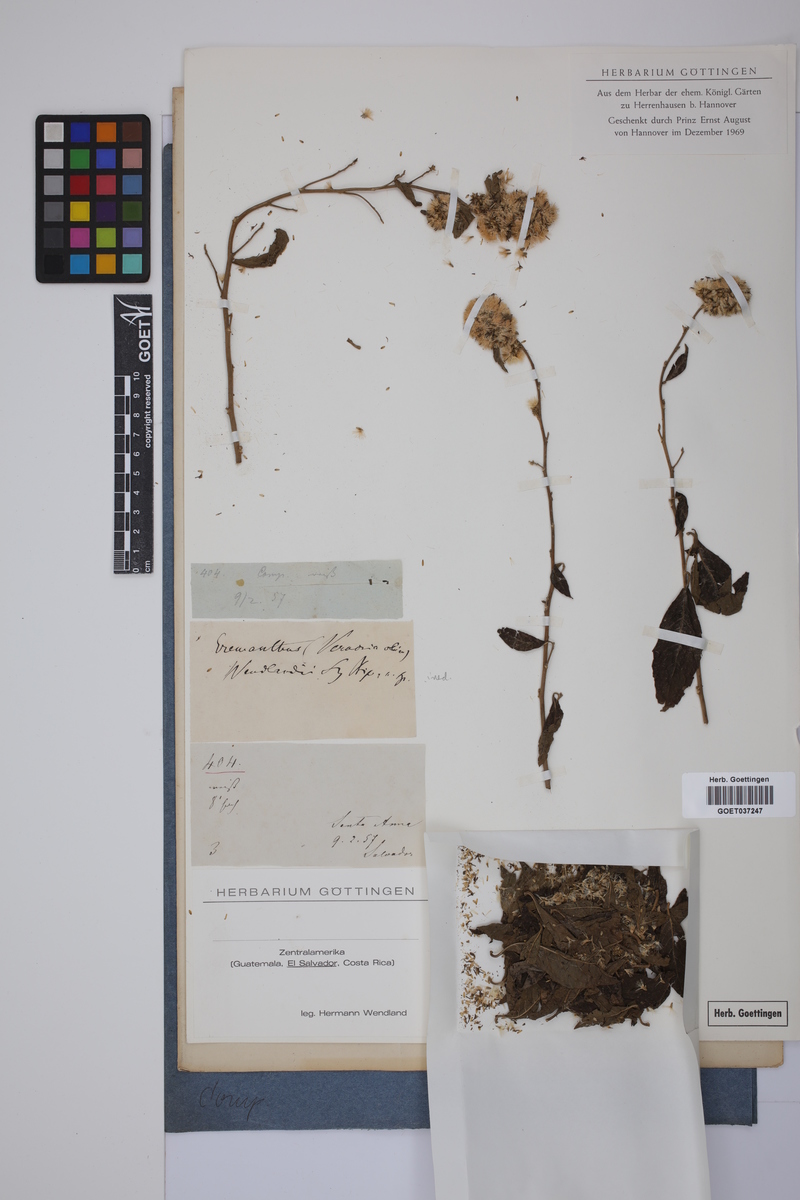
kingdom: Plantae
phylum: Tracheophyta
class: Magnoliopsida
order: Asterales
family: Asteraceae
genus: Eremanthus
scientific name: Eremanthus
